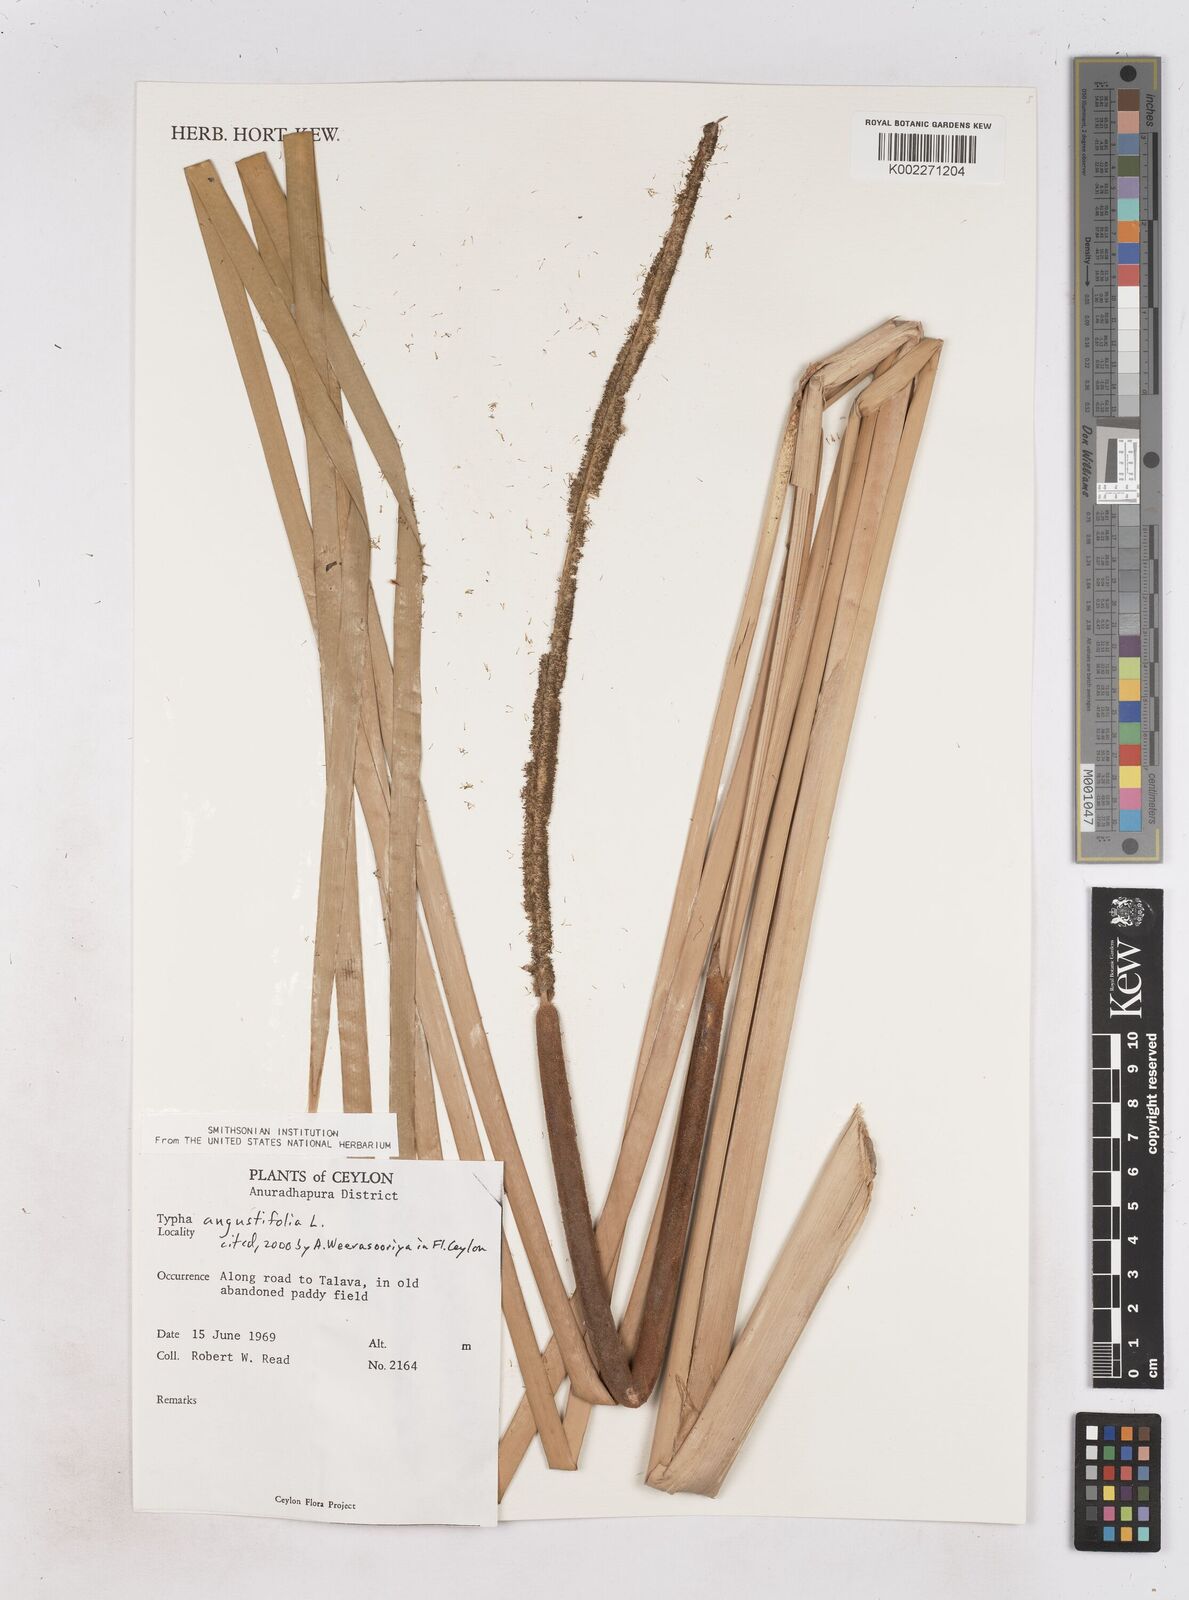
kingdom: Plantae
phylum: Tracheophyta
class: Liliopsida
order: Poales
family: Typhaceae
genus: Typha
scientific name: Typha domingensis
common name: Southern cattail
